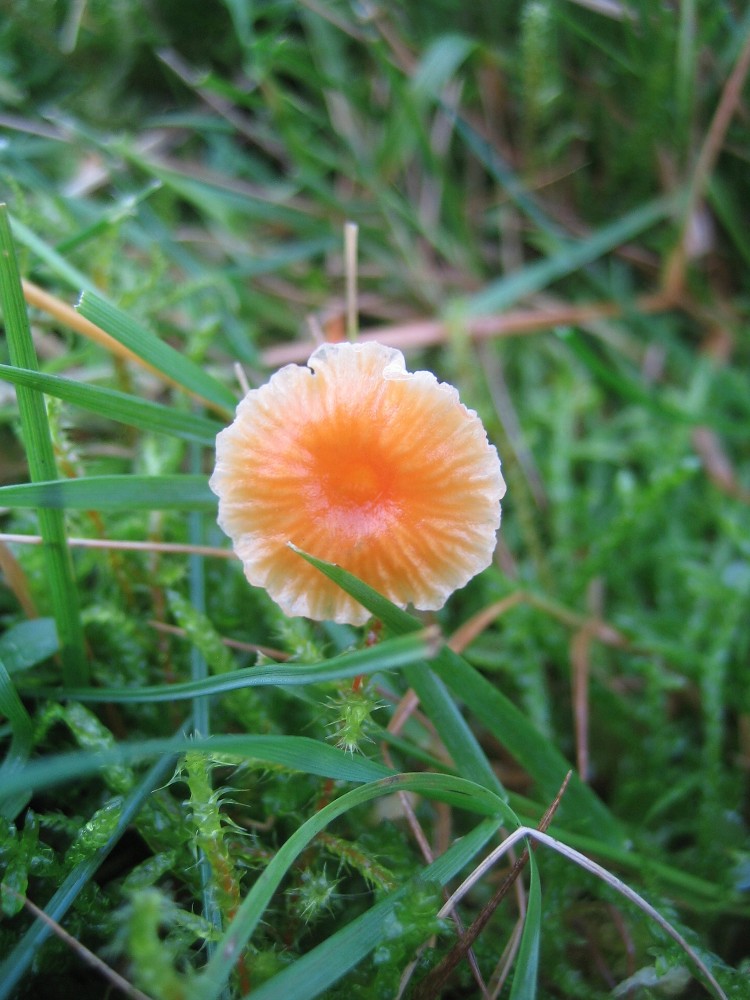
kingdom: Fungi
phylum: Basidiomycota
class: Agaricomycetes
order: Hymenochaetales
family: Rickenellaceae
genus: Rickenella
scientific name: Rickenella fibula
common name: orange mosnavlehat
